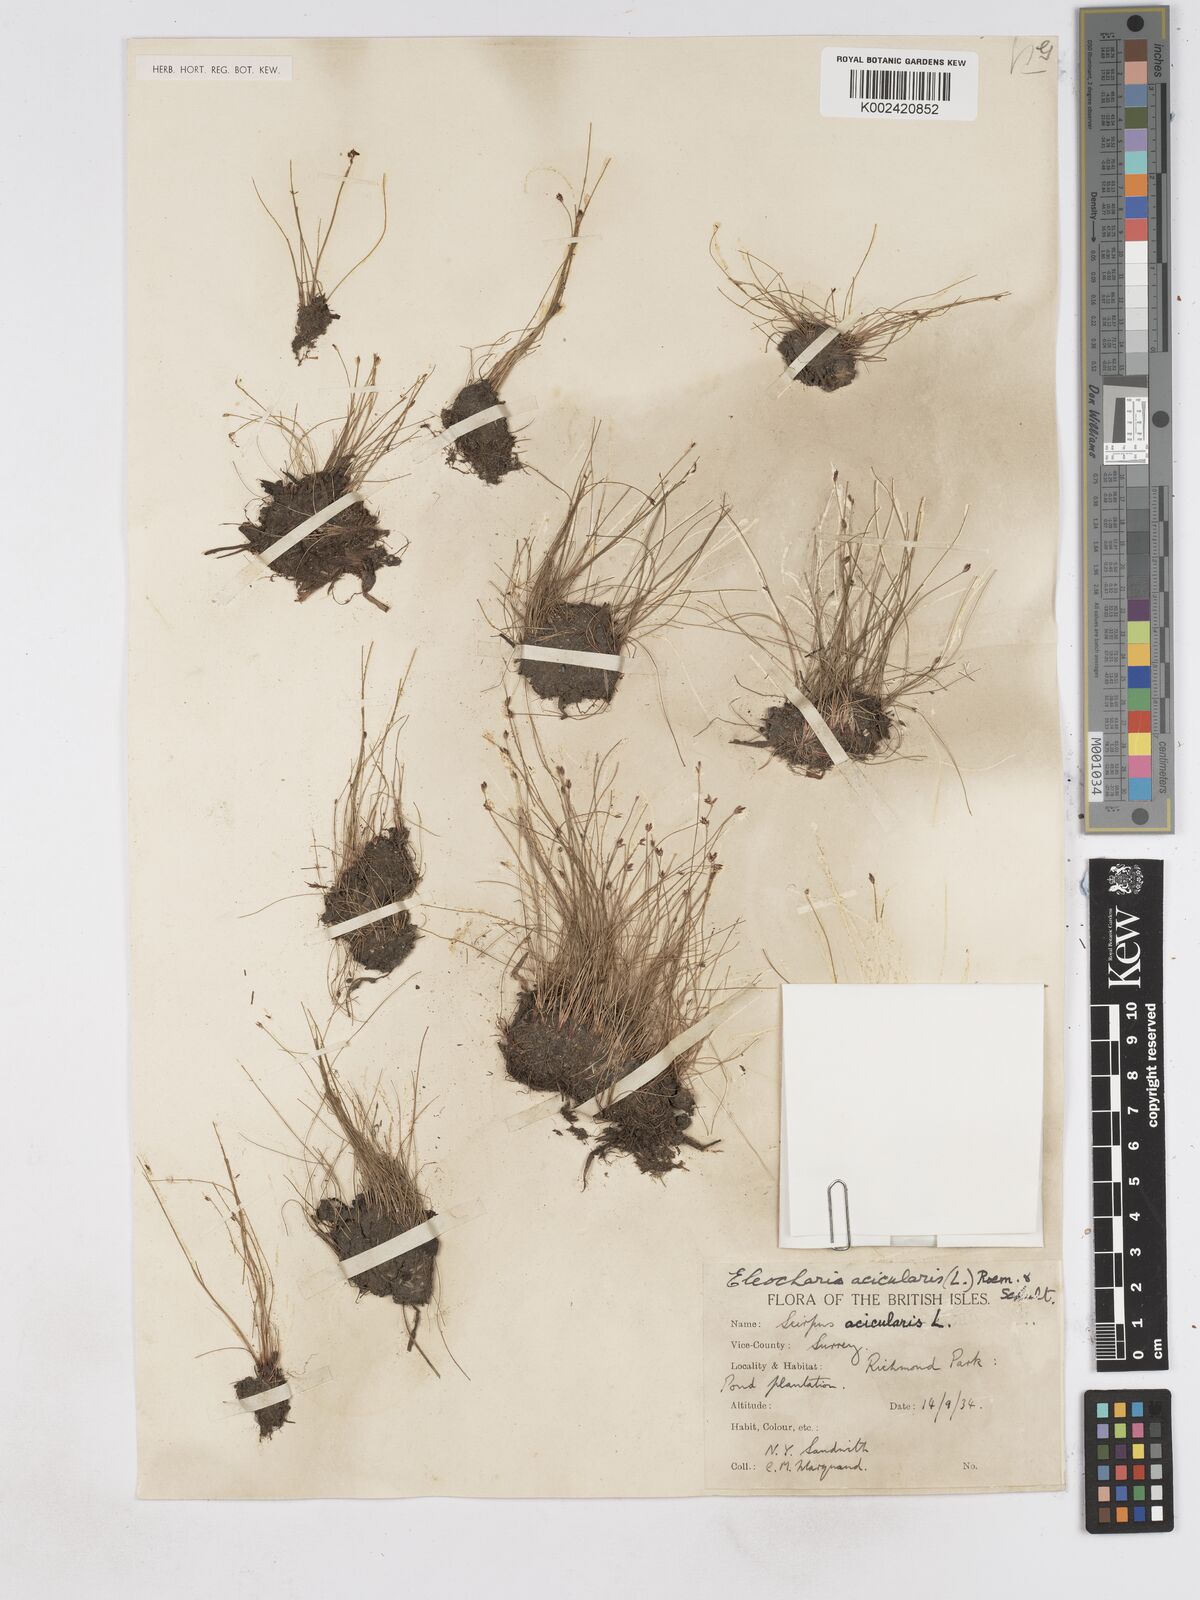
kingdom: Plantae
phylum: Tracheophyta
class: Liliopsida
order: Poales
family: Cyperaceae
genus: Eleocharis
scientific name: Eleocharis acicularis
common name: Needle spike-rush
